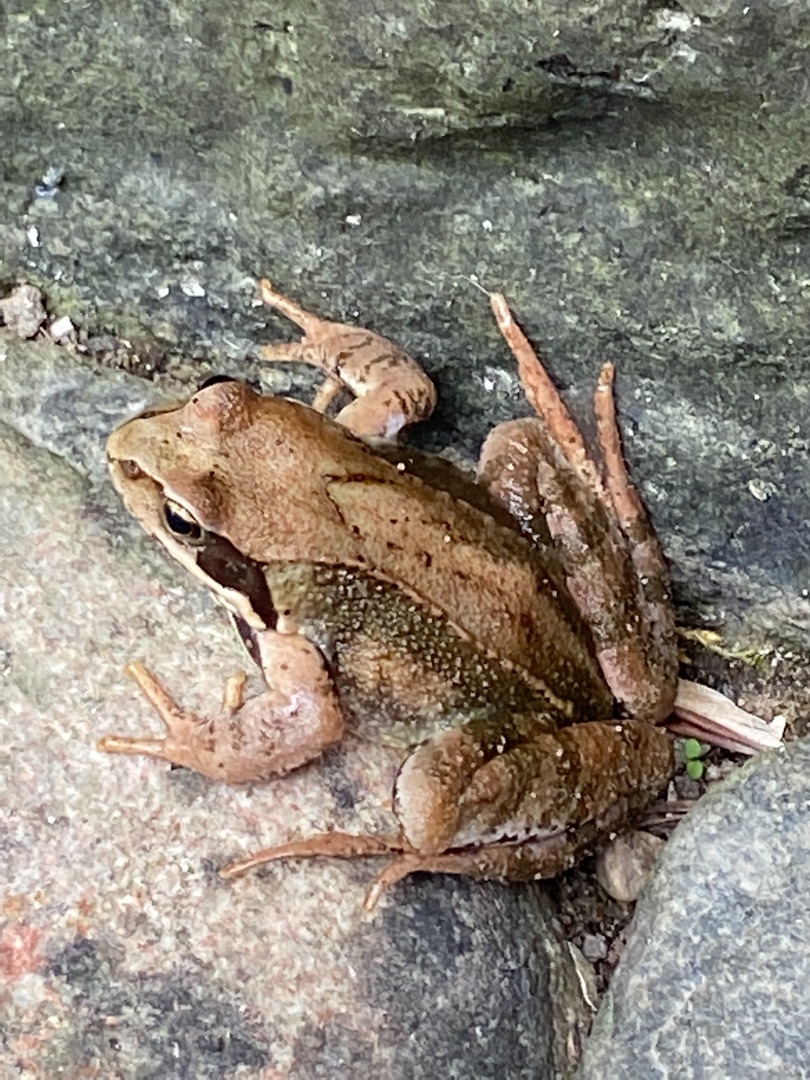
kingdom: Animalia
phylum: Chordata
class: Amphibia
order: Anura
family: Ranidae
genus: Rana
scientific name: Rana temporaria
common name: Butsnudet frø
